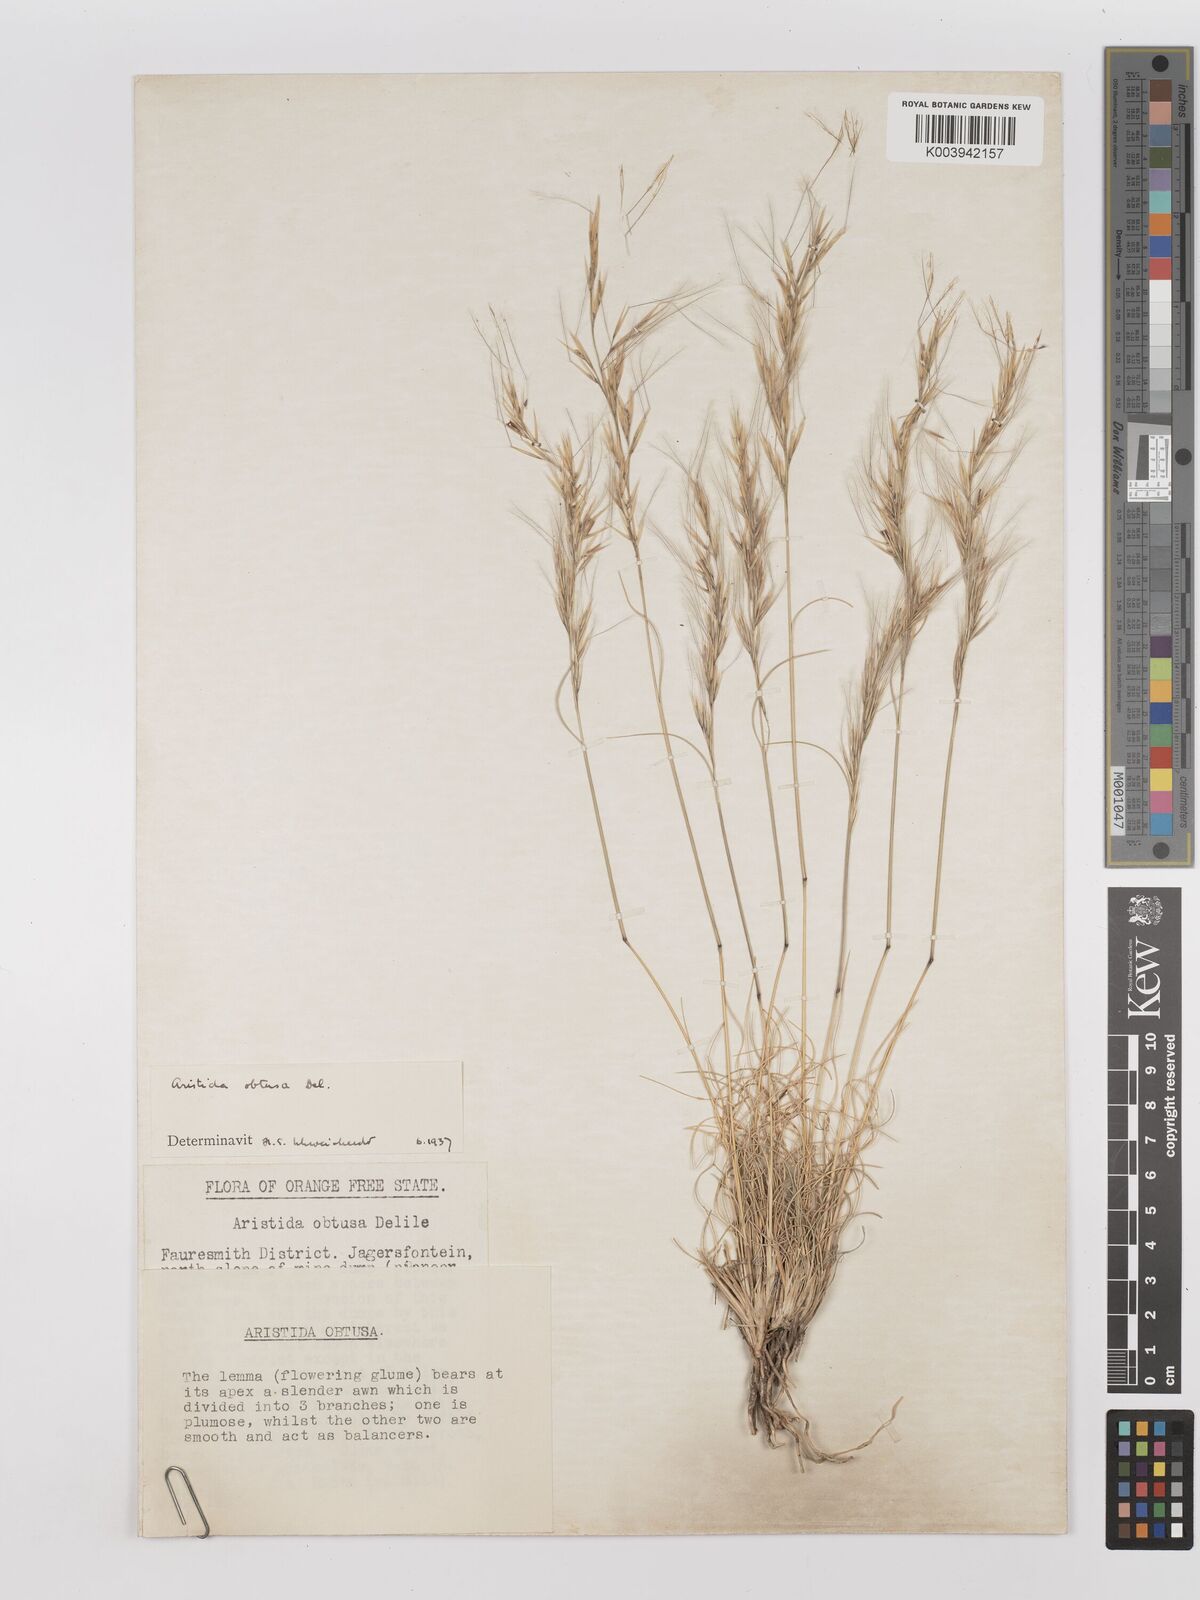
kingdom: Plantae
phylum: Tracheophyta
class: Liliopsida
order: Poales
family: Poaceae
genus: Stipagrostis
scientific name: Stipagrostis obtusa
